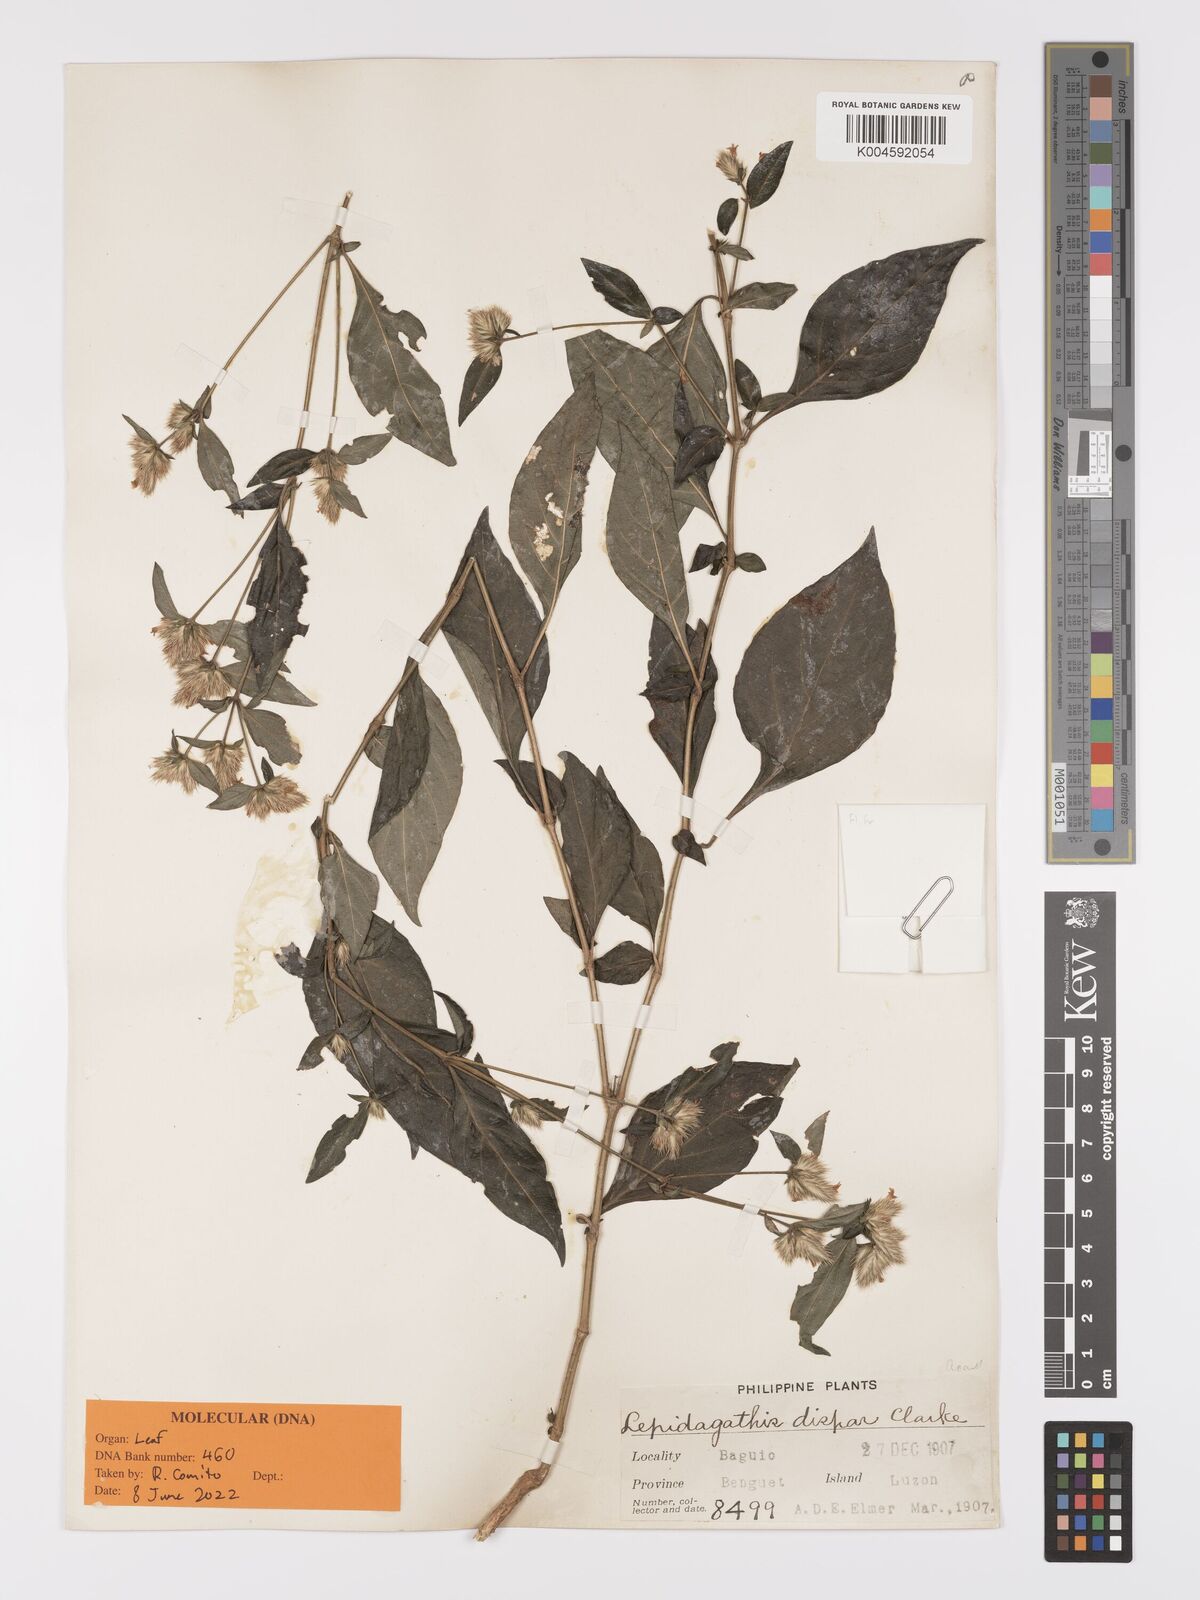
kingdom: Plantae
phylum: Tracheophyta
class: Magnoliopsida
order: Lamiales
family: Acanthaceae
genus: Lepidagathis
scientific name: Lepidagathis dispar
